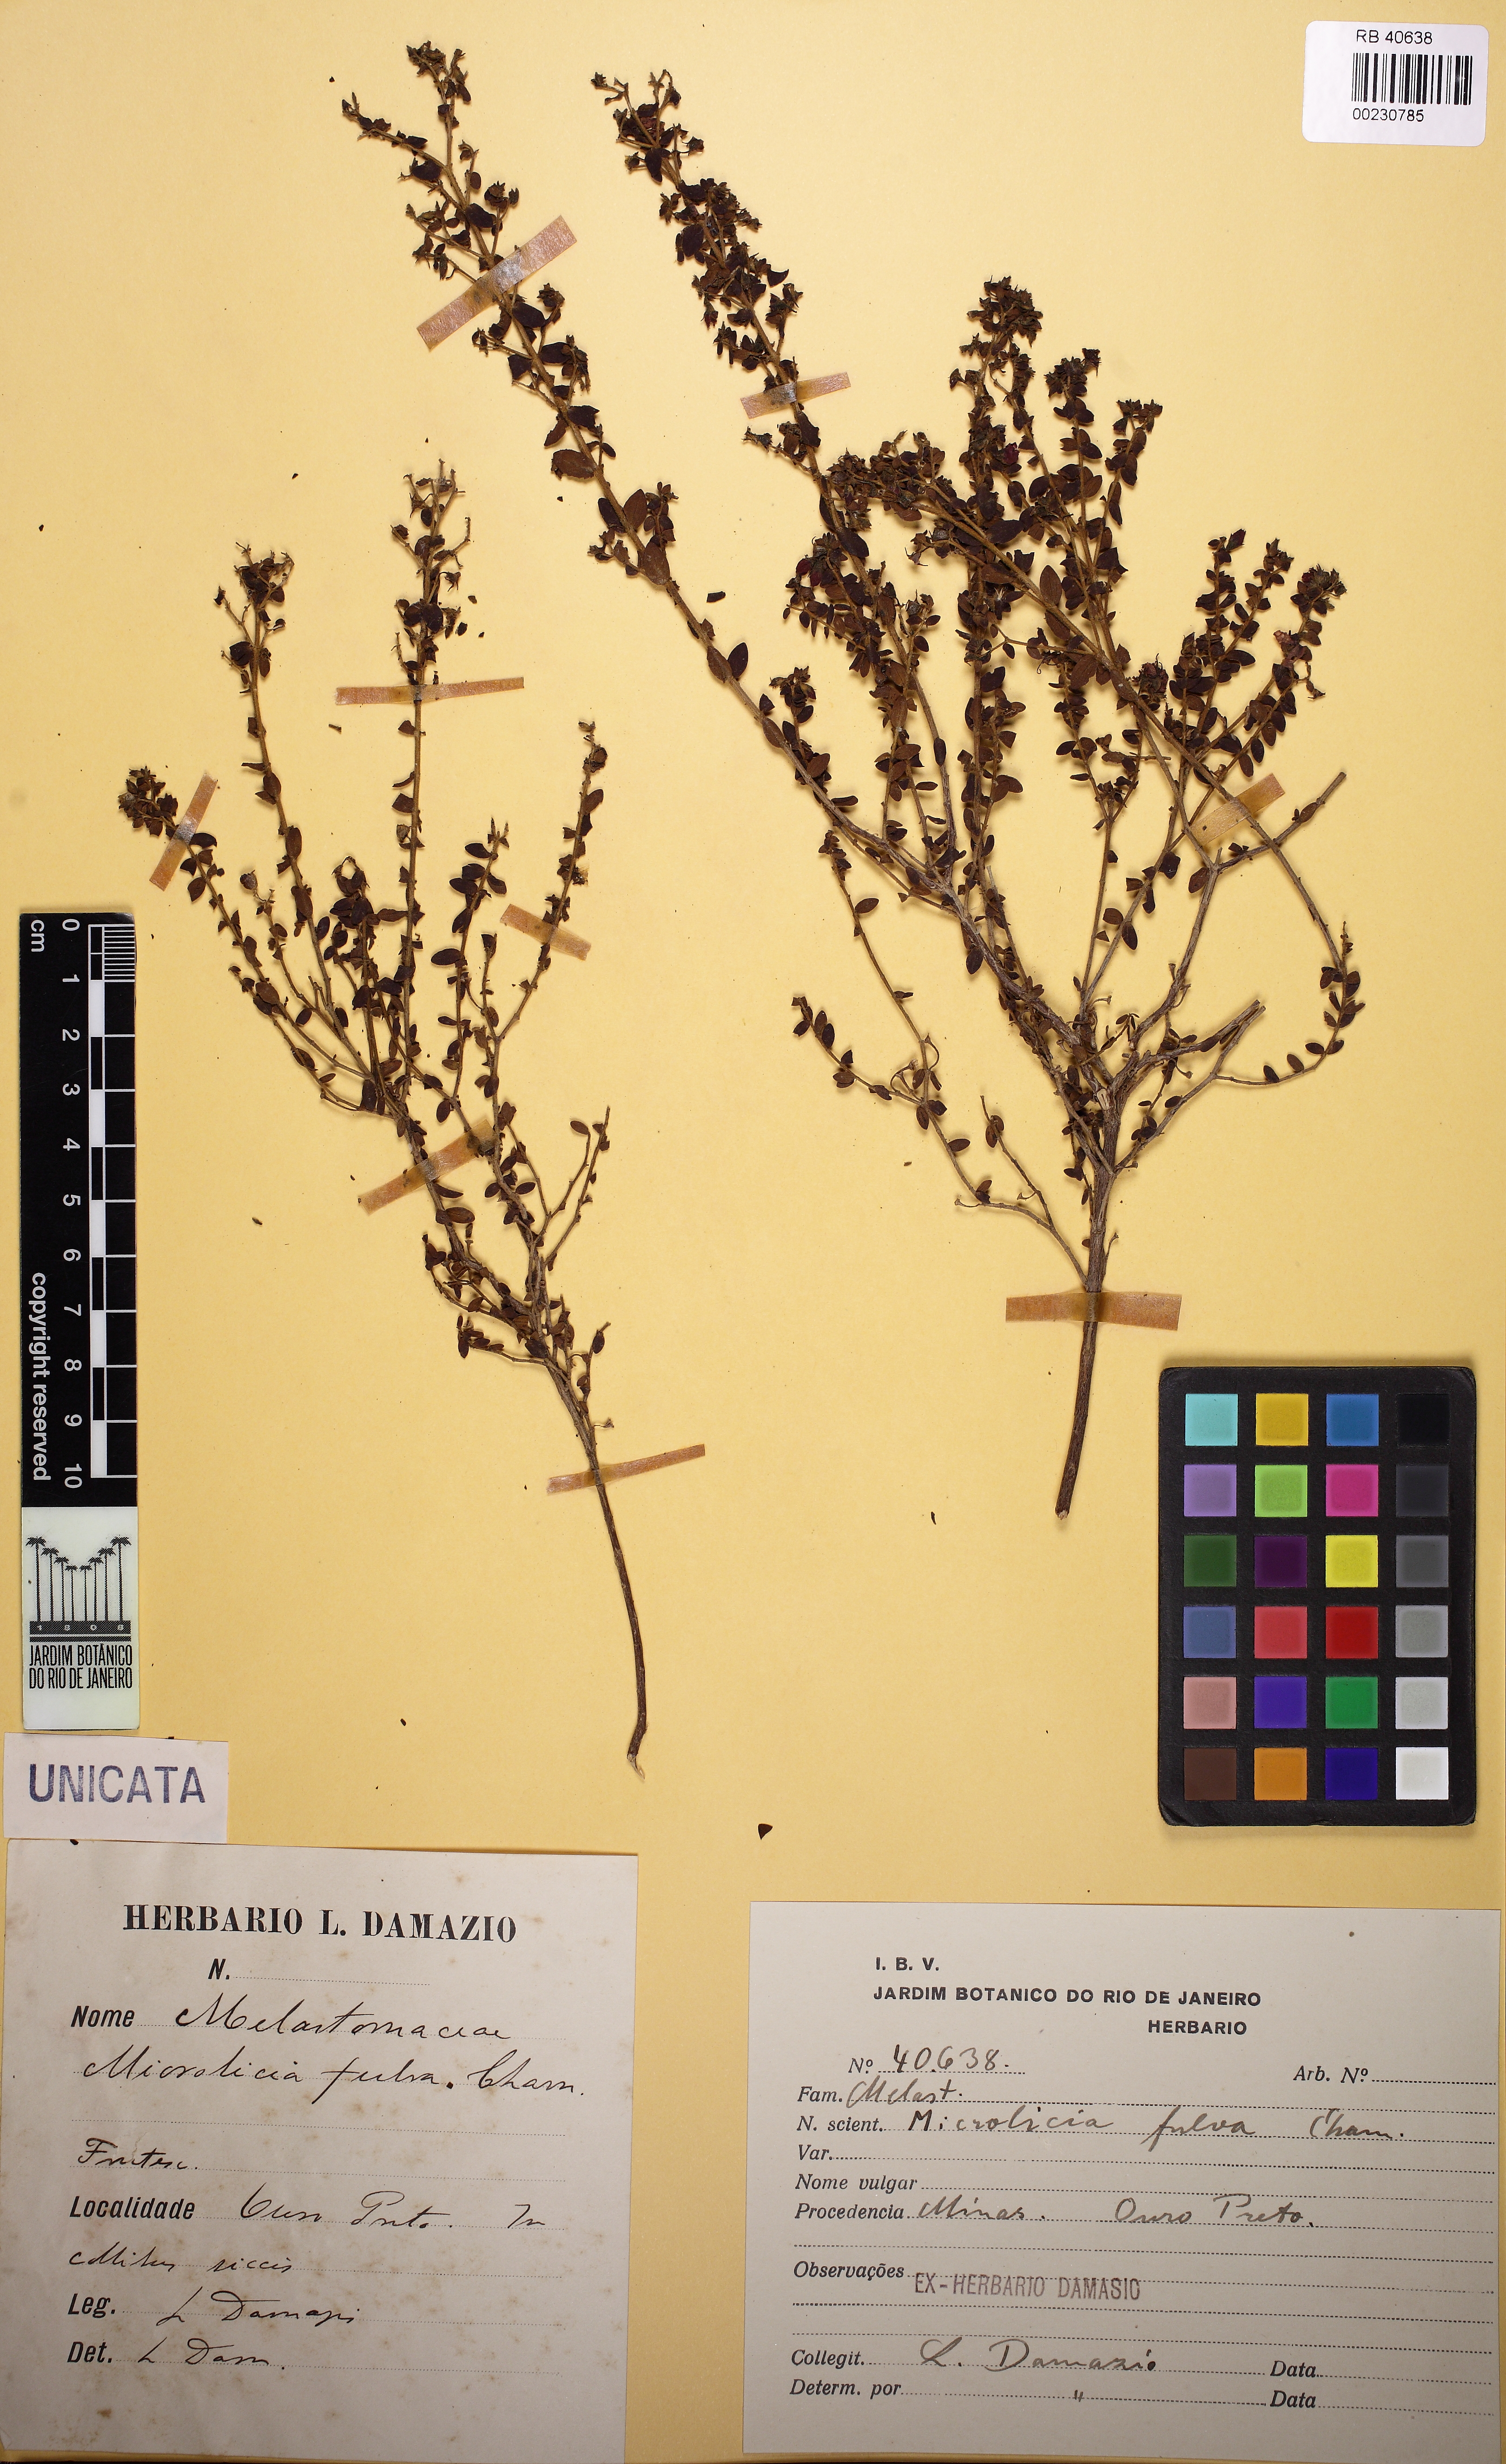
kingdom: Plantae
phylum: Tracheophyta
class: Magnoliopsida
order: Myrtales
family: Melastomataceae
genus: Microlicia
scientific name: Microlicia fulva
